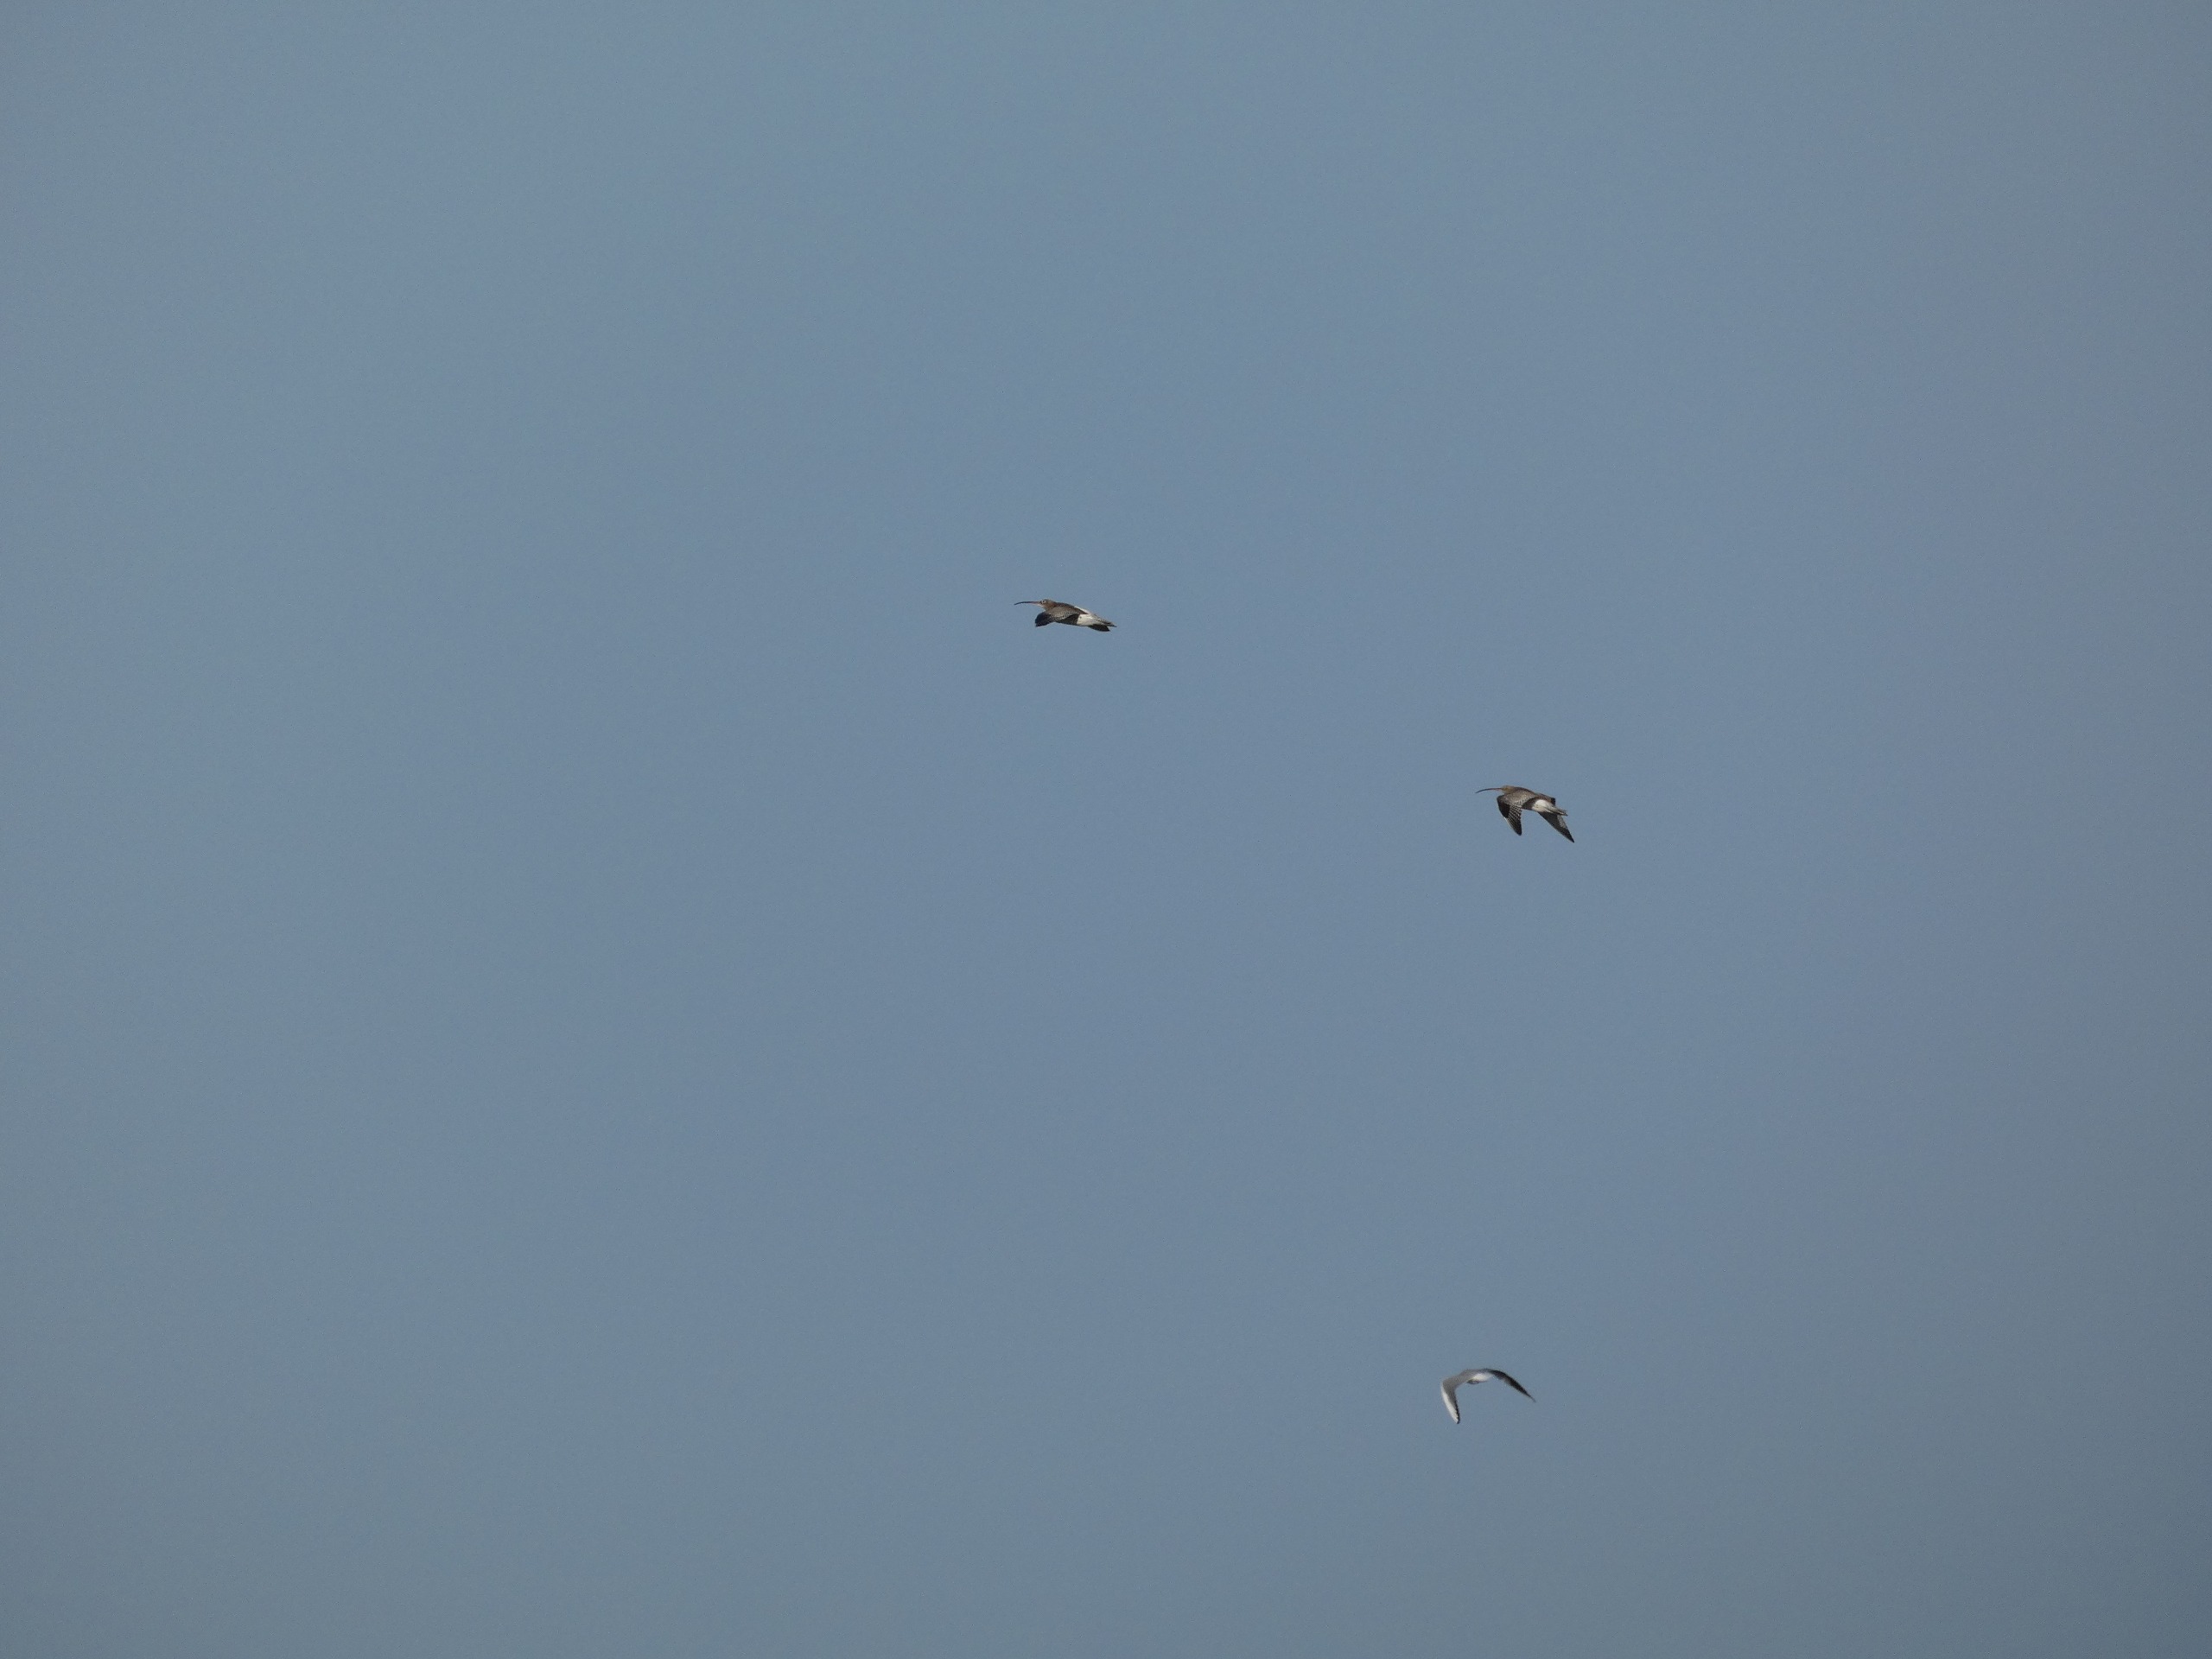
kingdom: Animalia
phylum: Chordata
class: Aves
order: Charadriiformes
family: Scolopacidae
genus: Numenius
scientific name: Numenius arquata
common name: Storspove
